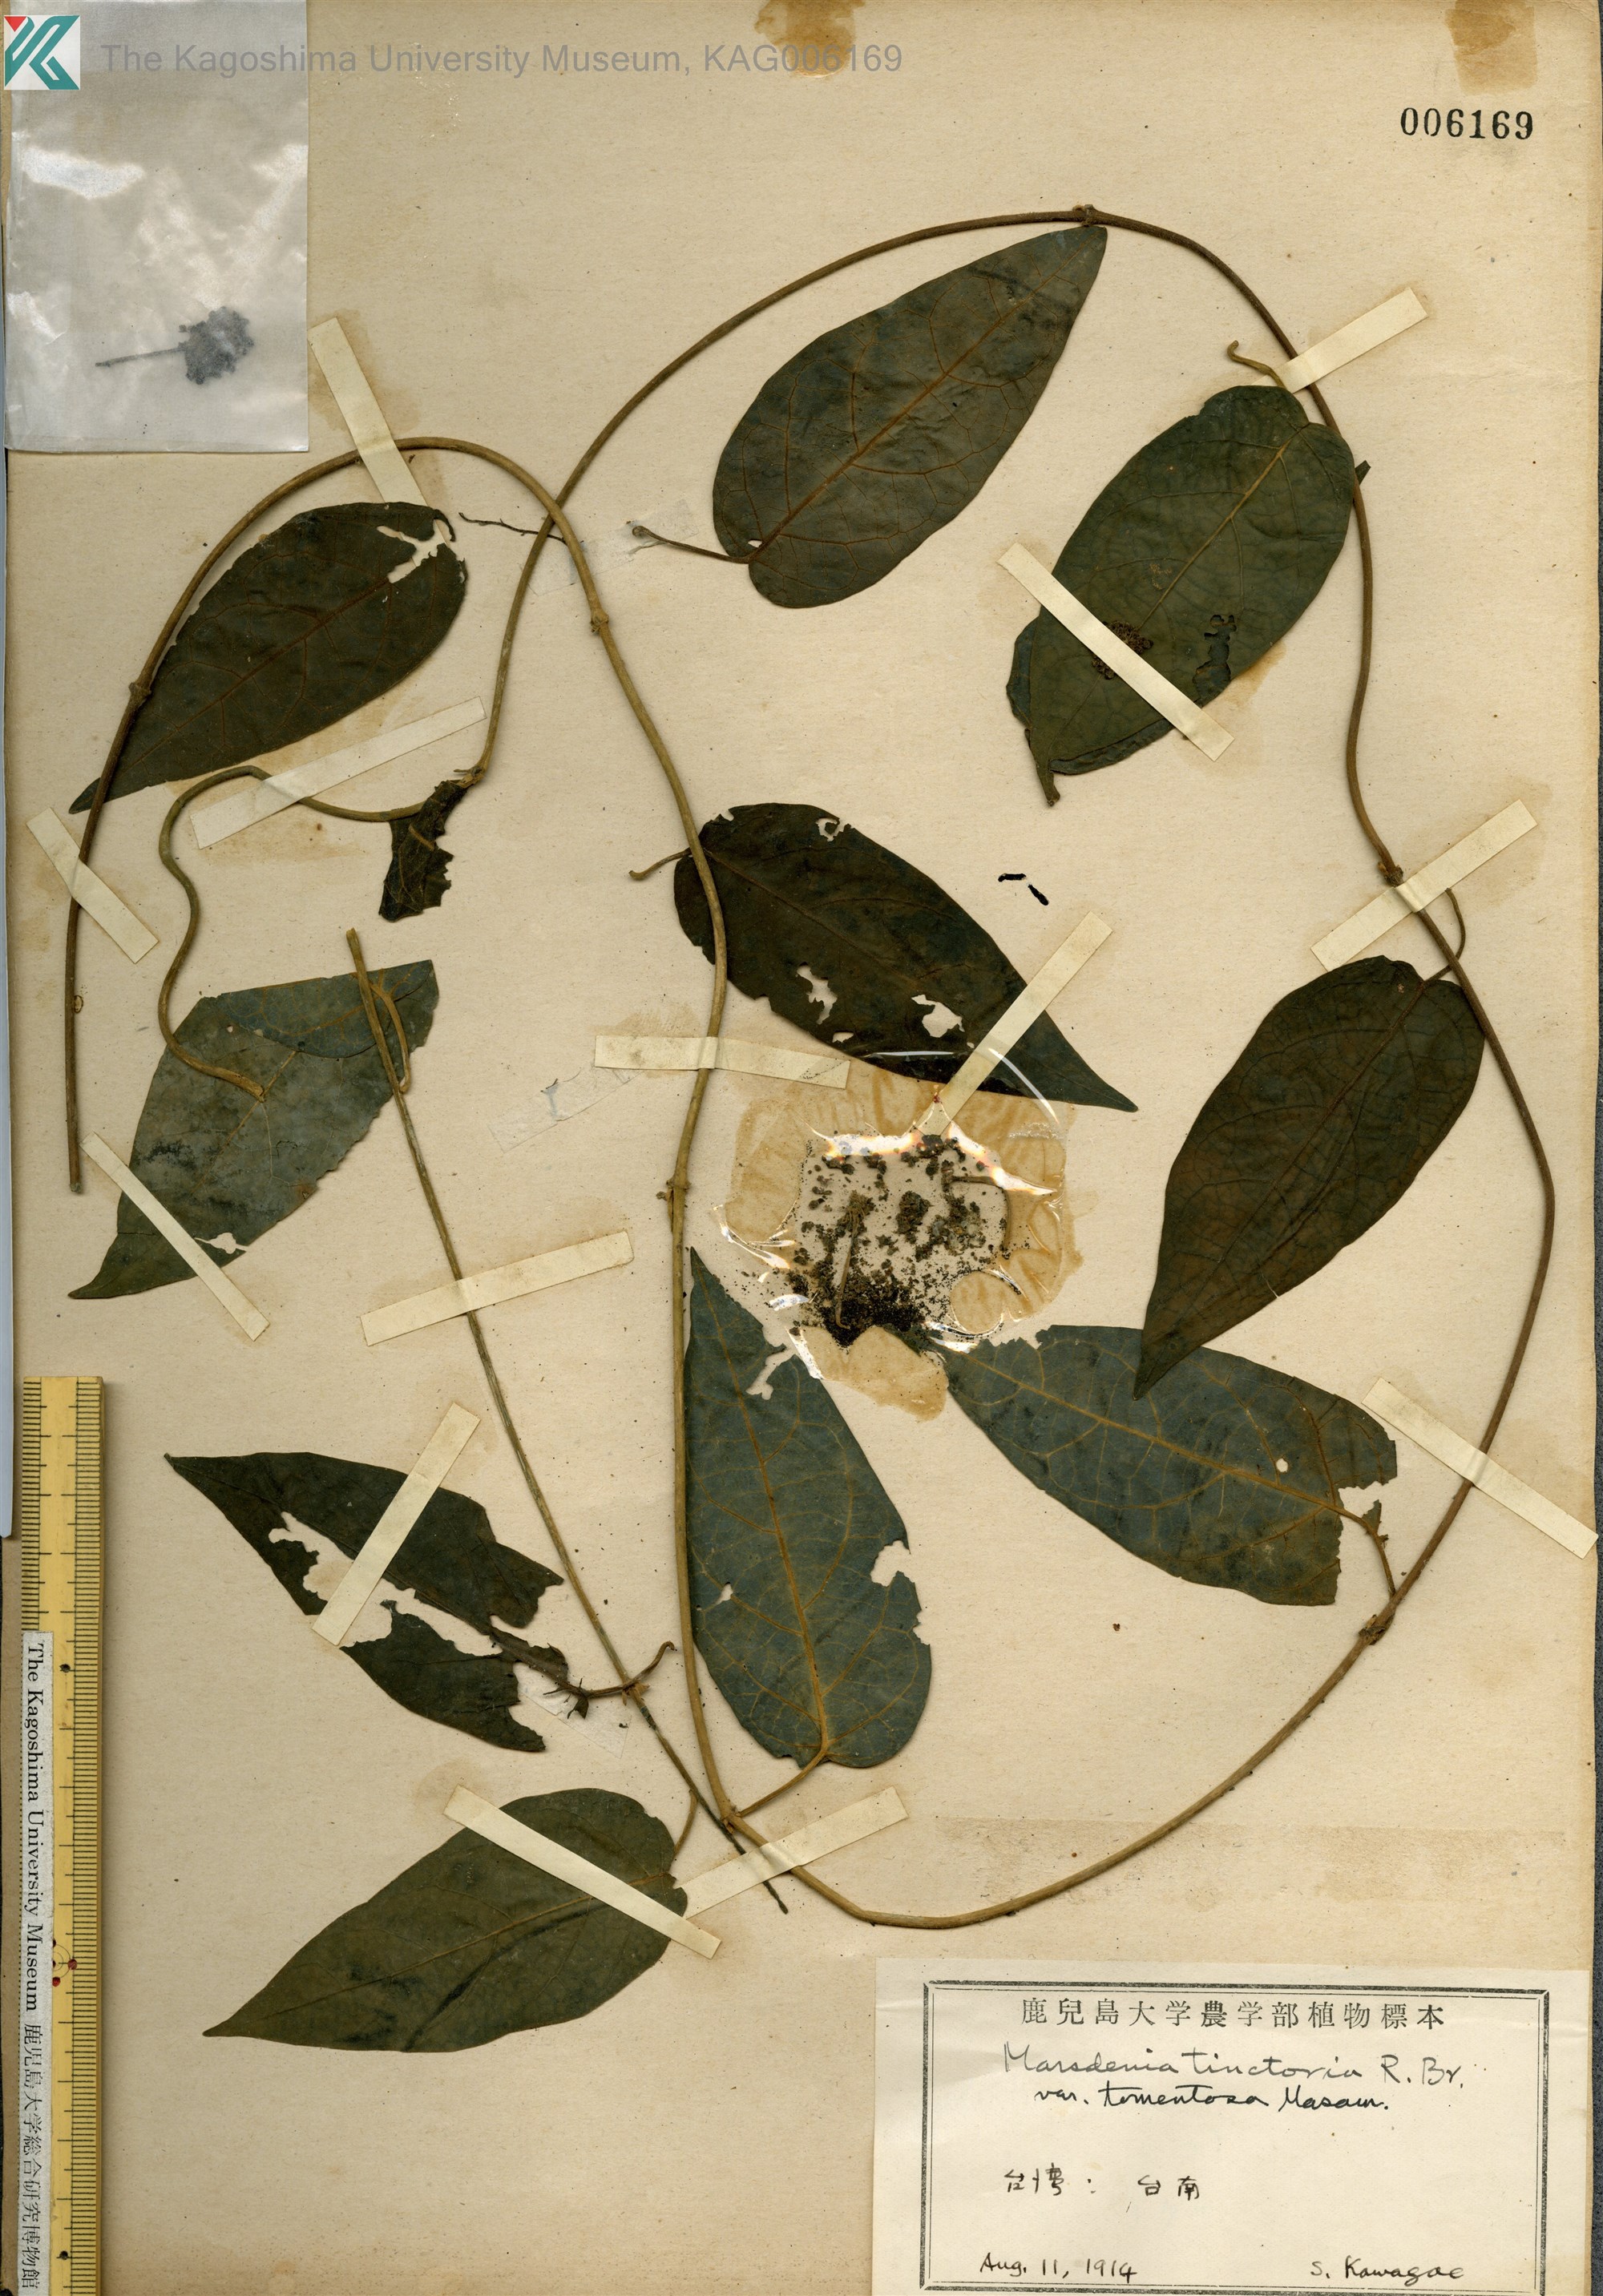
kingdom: Plantae
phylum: Tracheophyta
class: Magnoliopsida
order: Gentianales
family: Apocynaceae
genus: Marsdenia
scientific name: Marsdenia tinctoria
